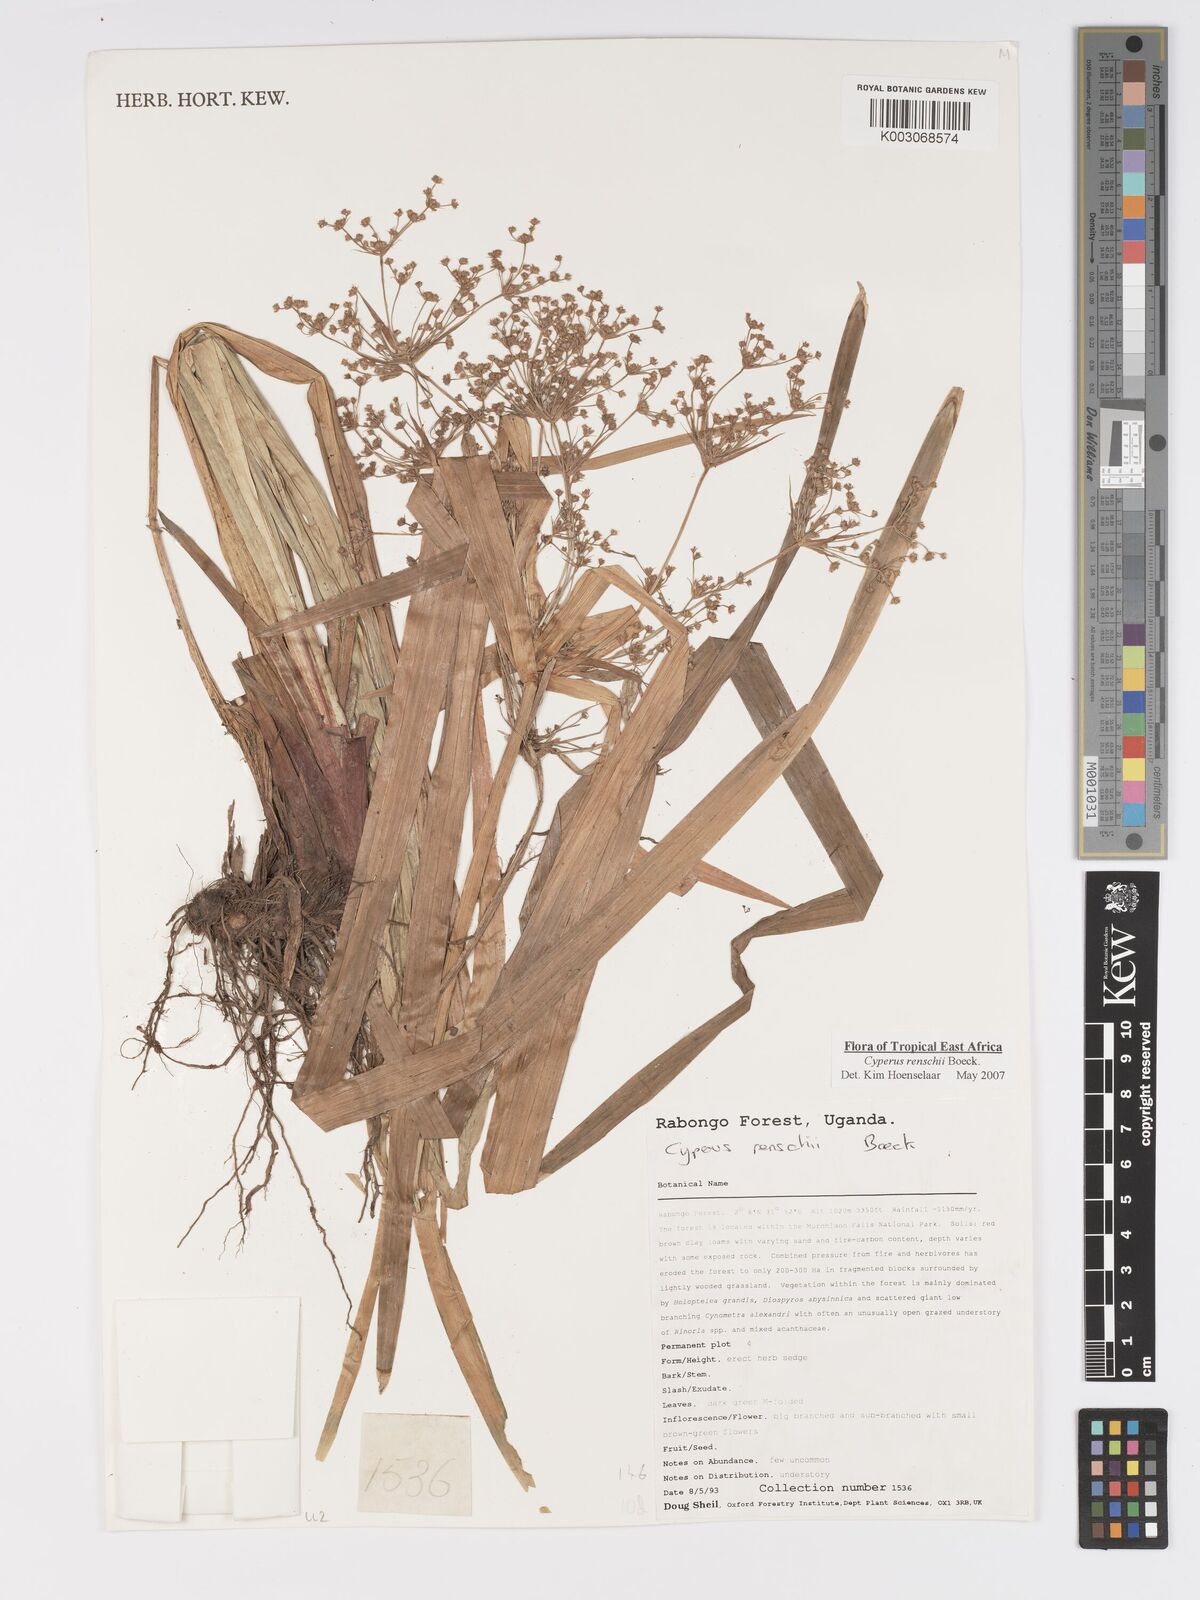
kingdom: Plantae
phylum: Tracheophyta
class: Liliopsida
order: Poales
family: Cyperaceae
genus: Cyperus
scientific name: Cyperus renschii
